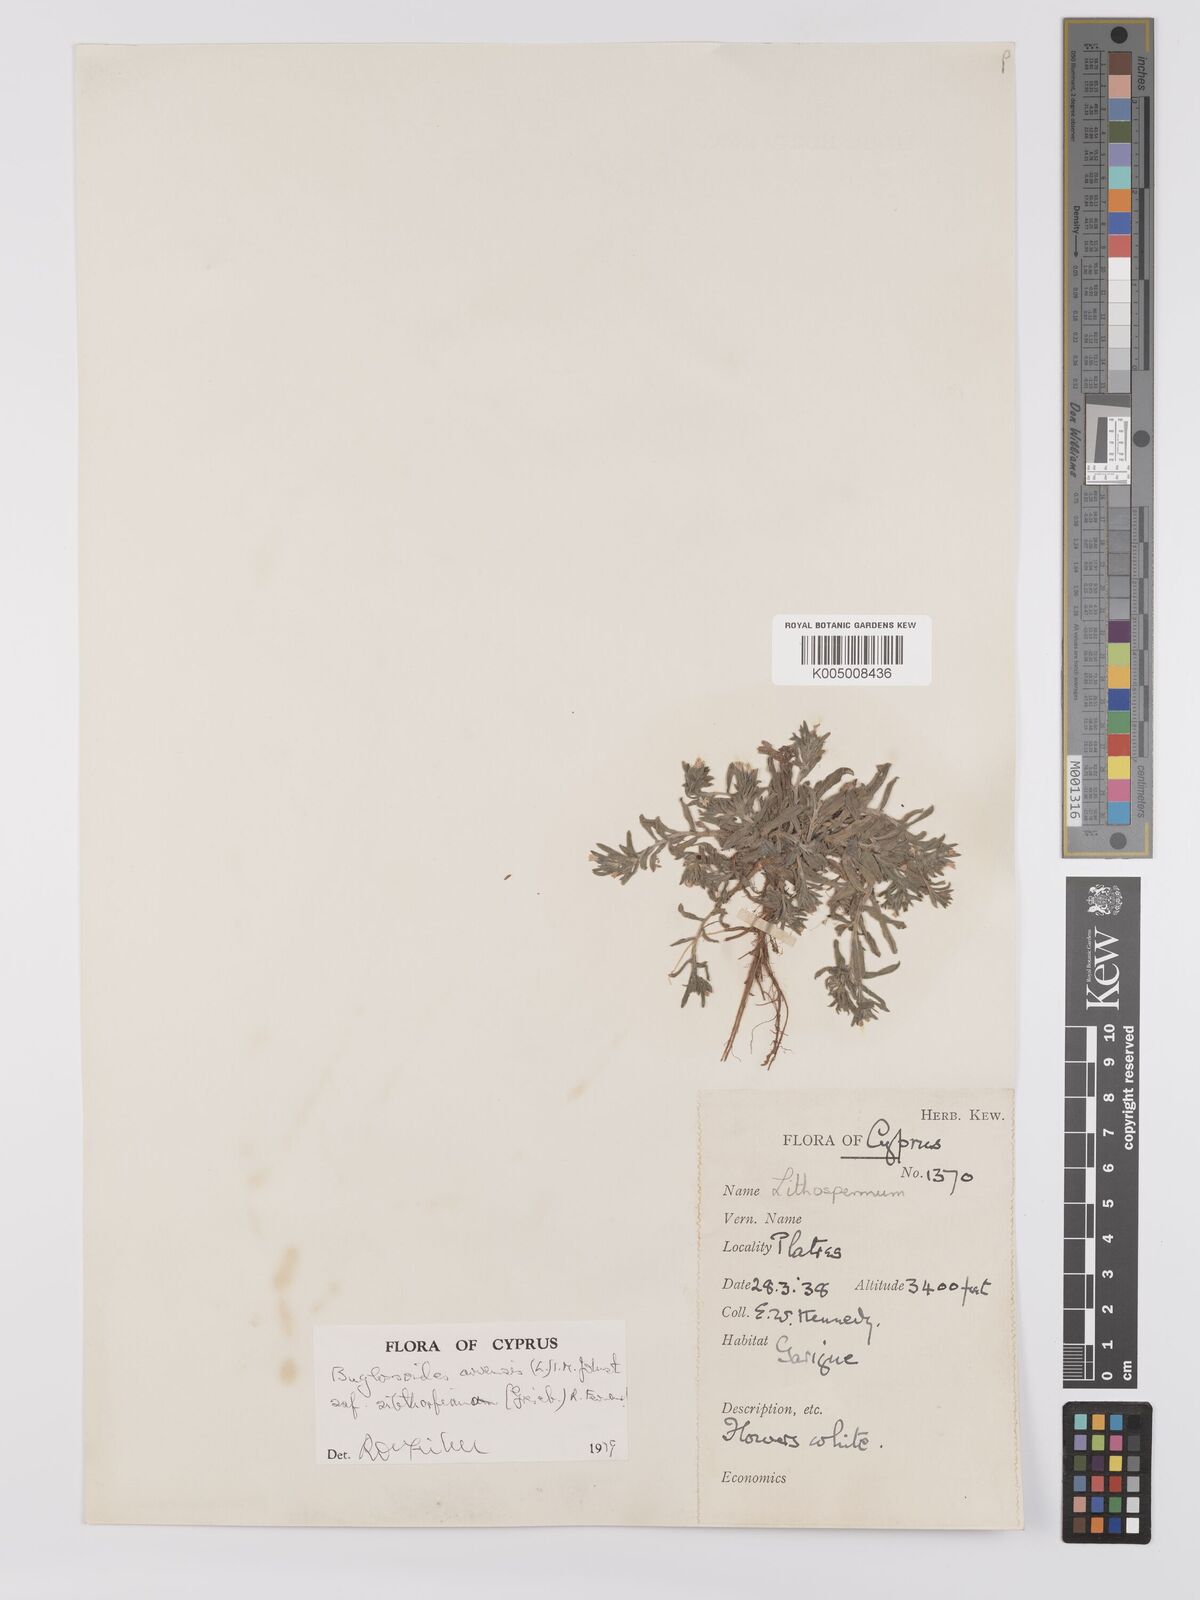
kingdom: Plantae
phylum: Tracheophyta
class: Magnoliopsida
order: Boraginales
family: Boraginaceae
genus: Buglossoides
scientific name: Buglossoides
